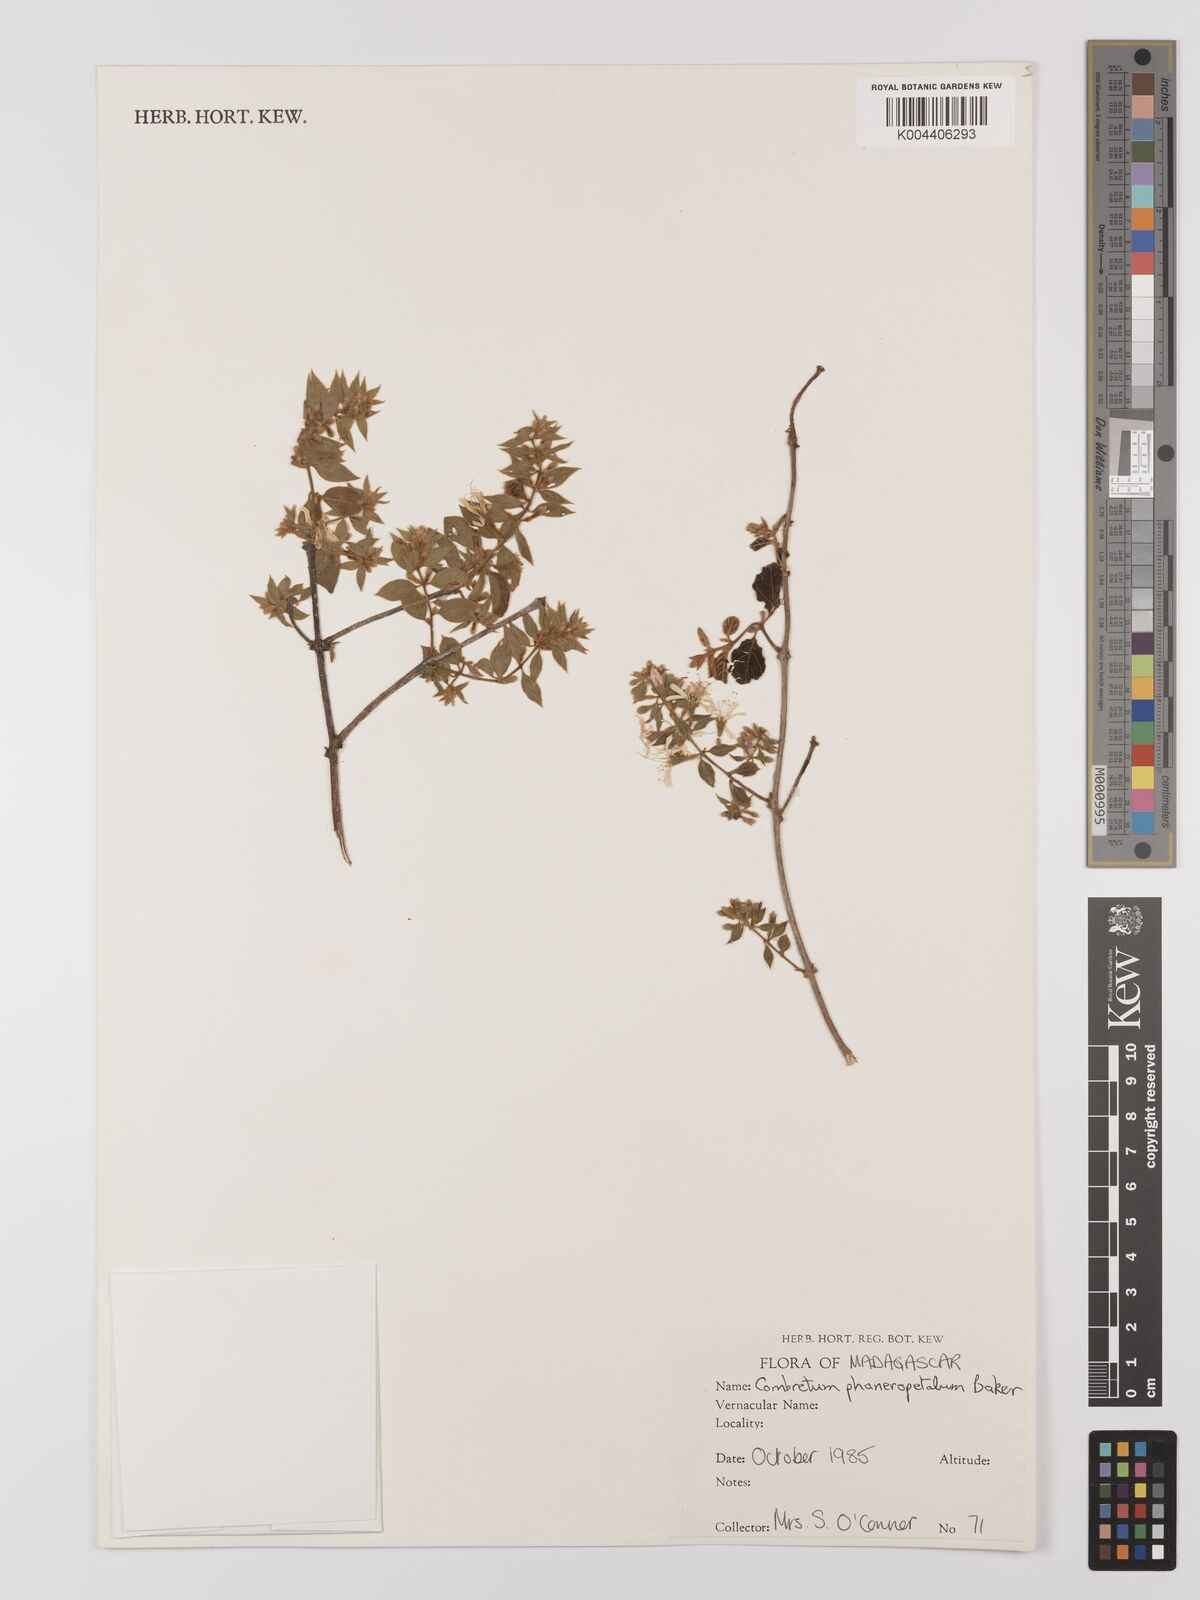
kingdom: Plantae
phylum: Tracheophyta
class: Magnoliopsida
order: Myrtales
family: Combretaceae
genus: Combretum
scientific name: Combretum albiflorum
